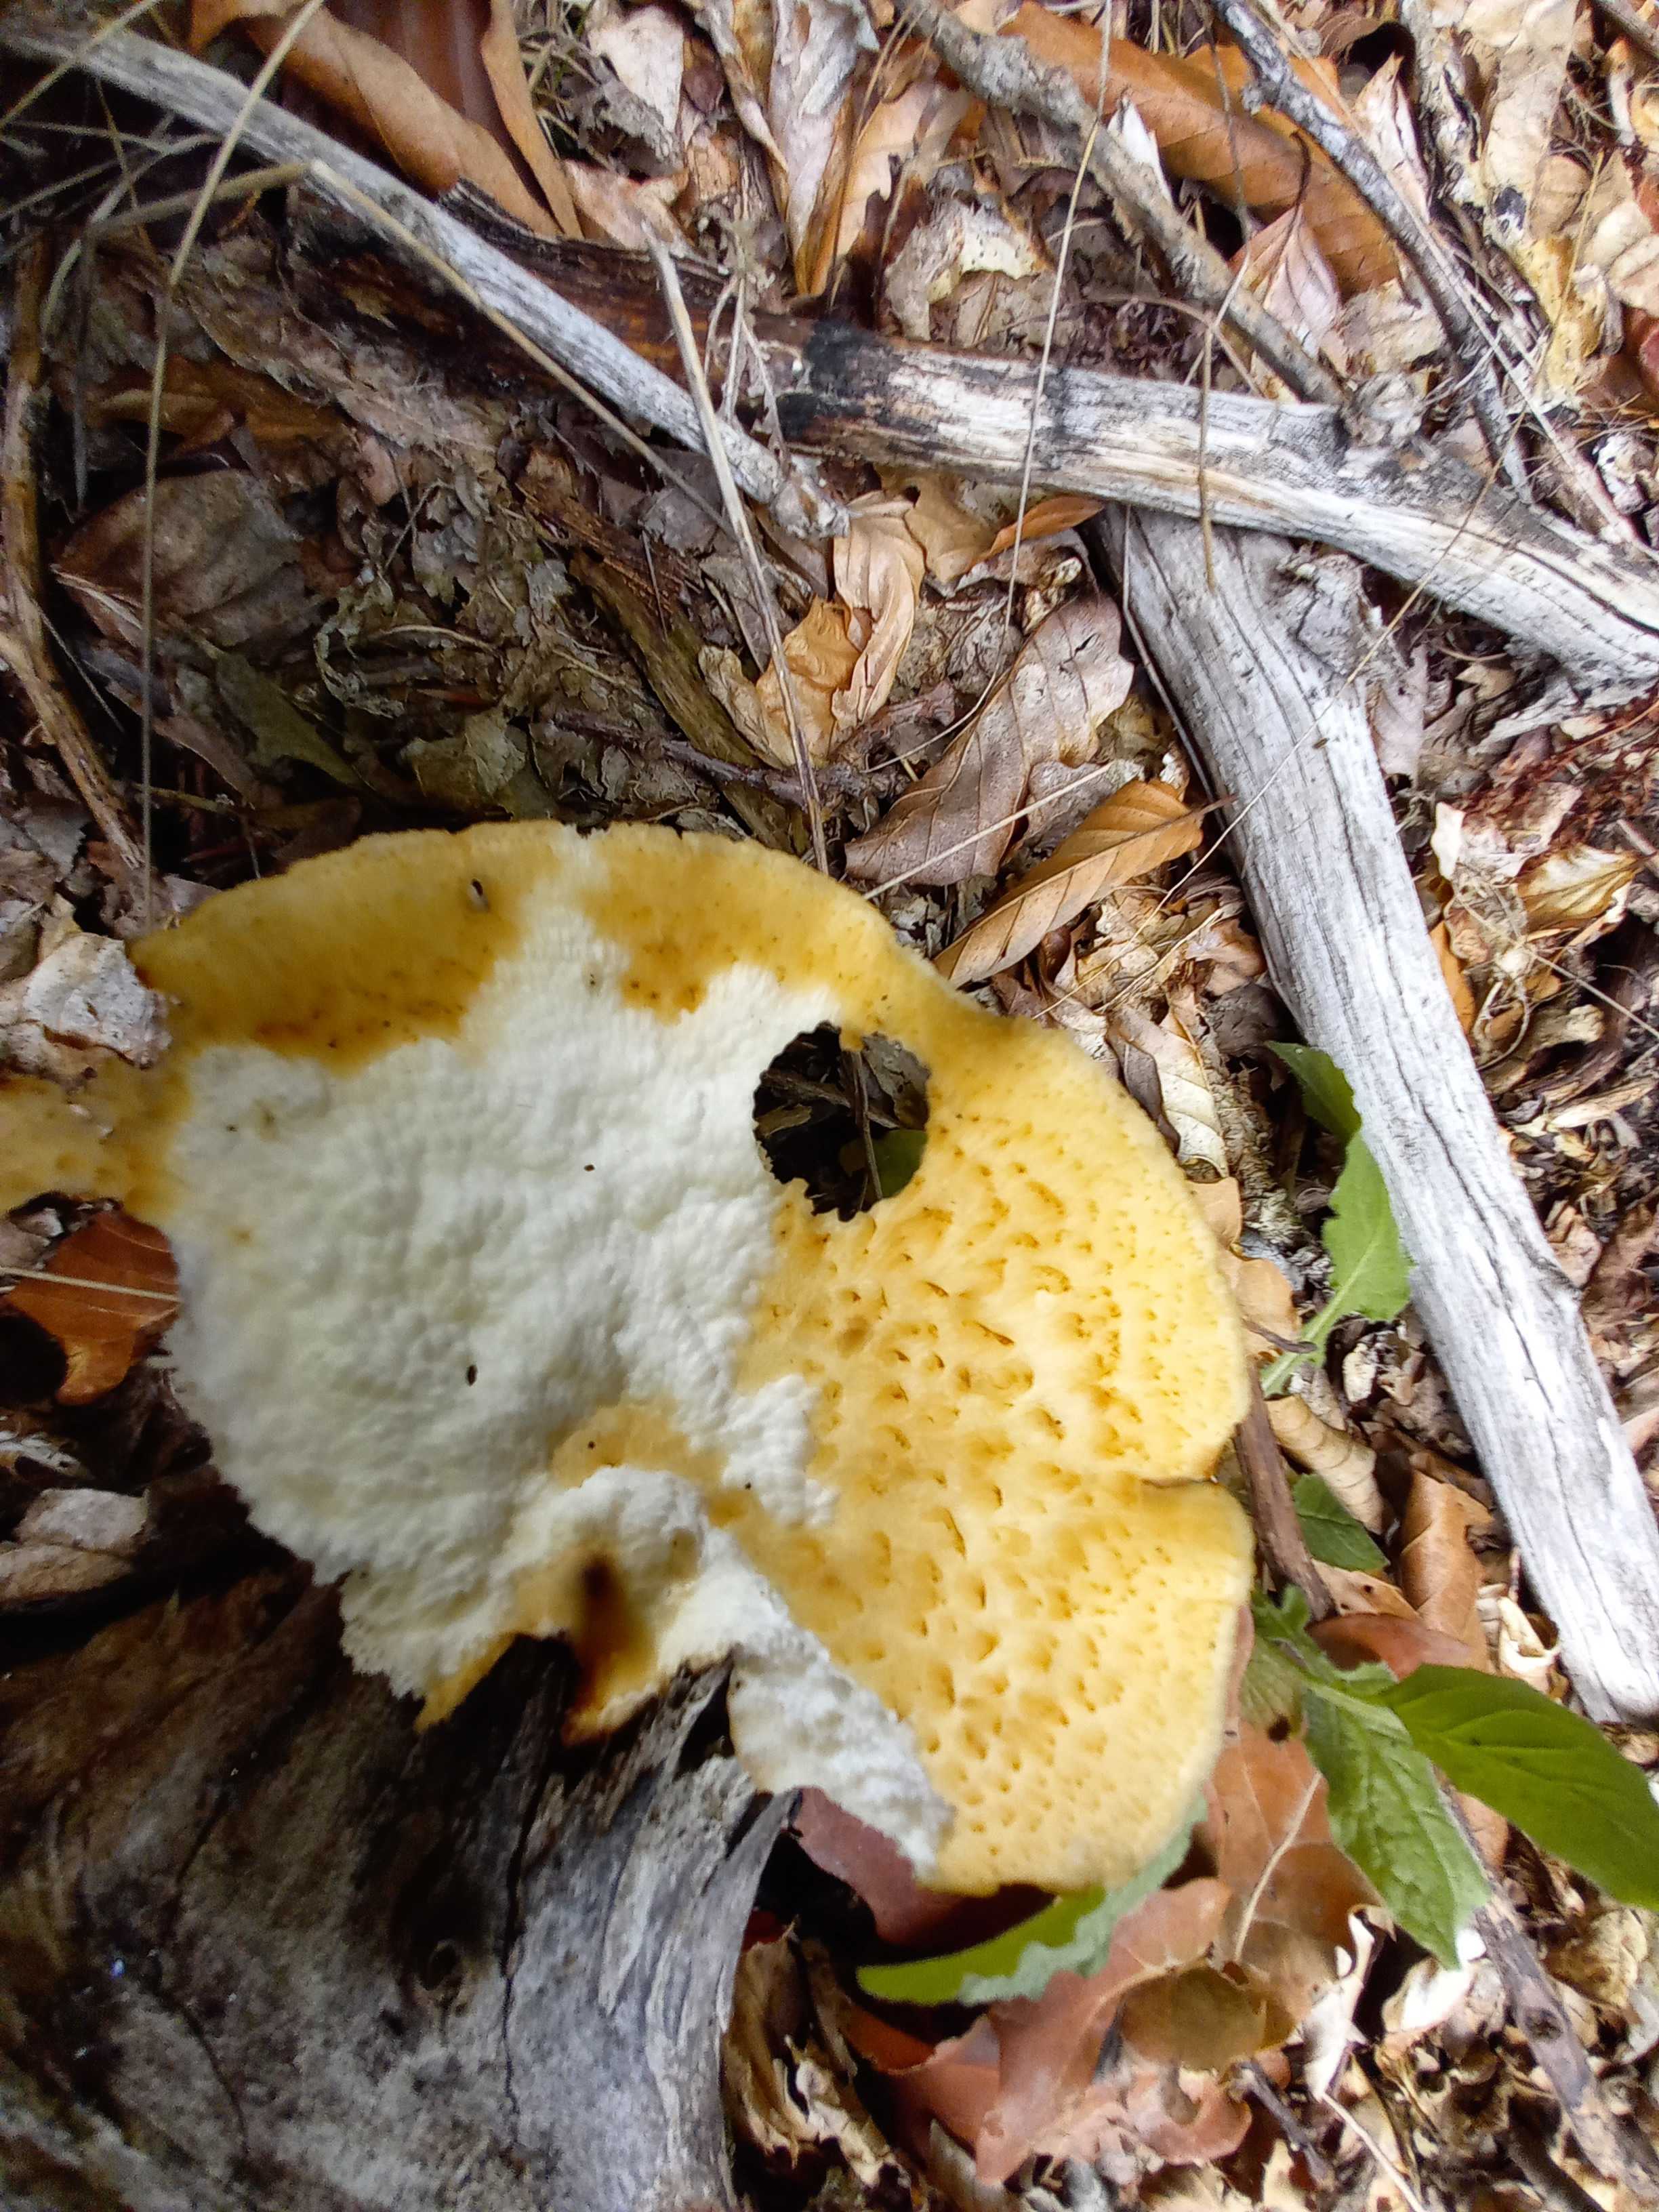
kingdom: Fungi
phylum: Basidiomycota
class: Agaricomycetes
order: Polyporales
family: Polyporaceae
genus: Polyporus
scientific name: Polyporus tuberaster
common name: knoldet stilkporesvamp
